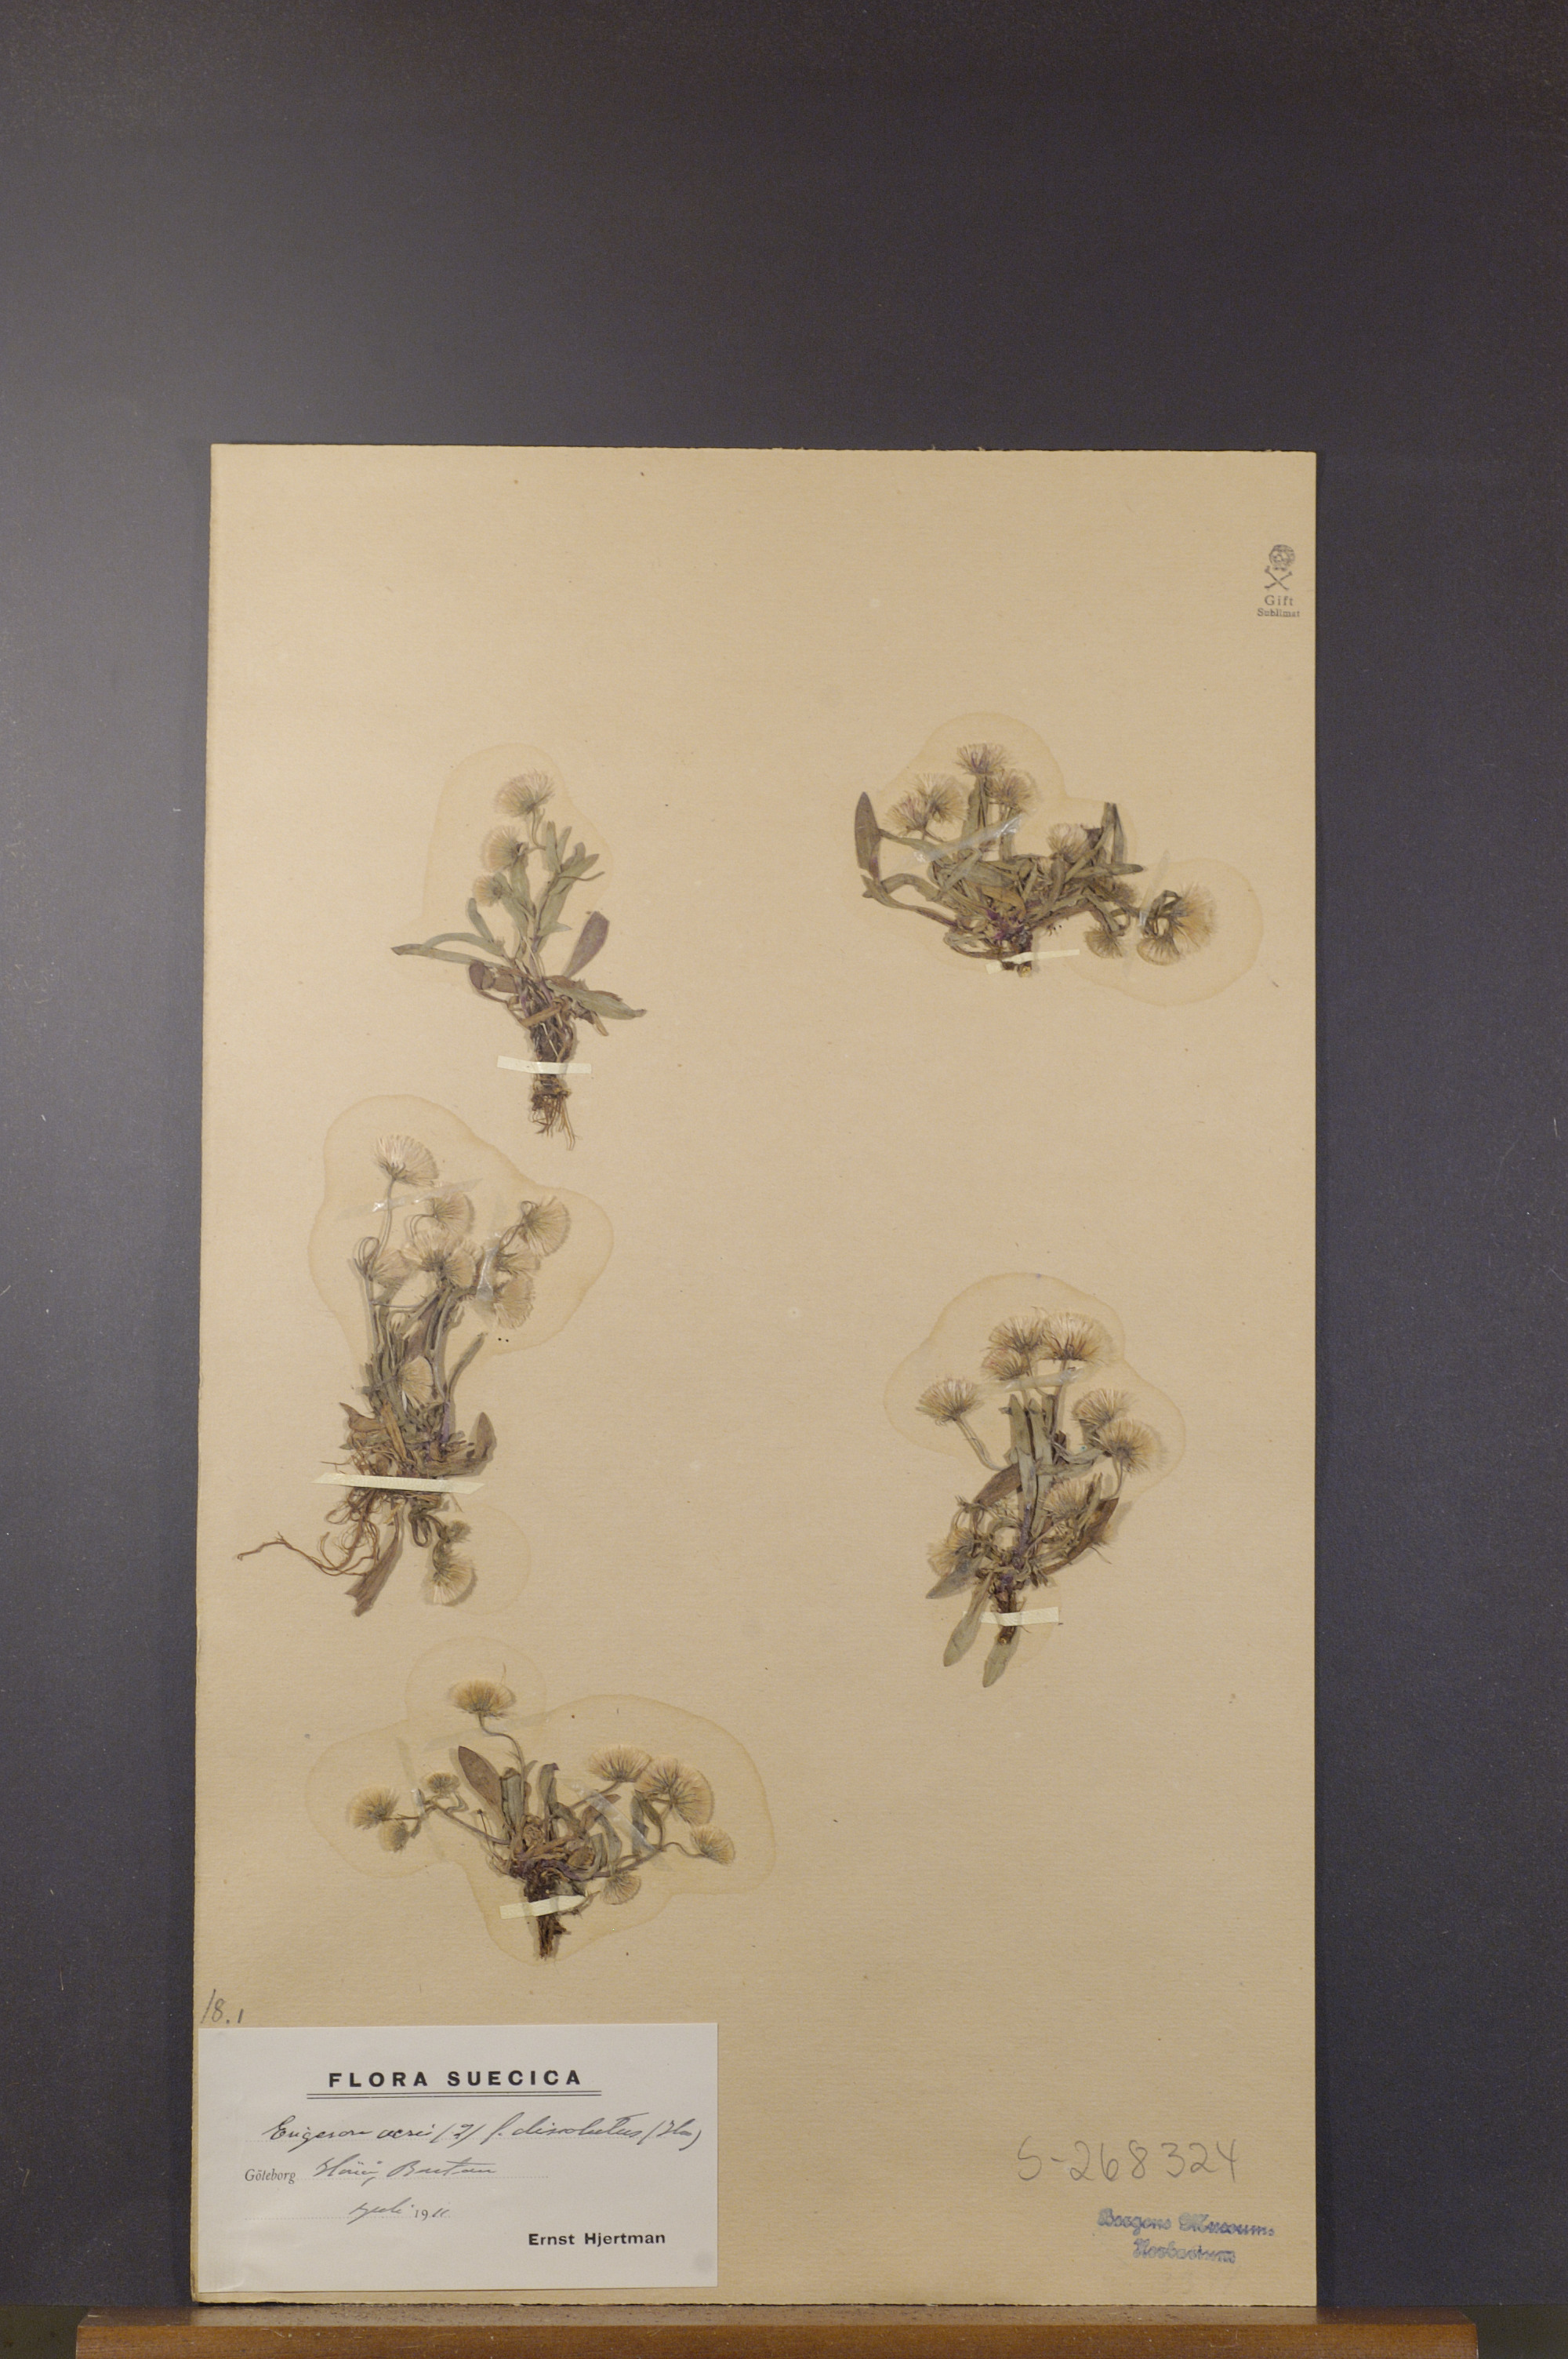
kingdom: Plantae
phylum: Tracheophyta
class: Magnoliopsida
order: Asterales
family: Asteraceae
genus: Erigeron
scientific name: Erigeron acris
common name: Blue fleabane
